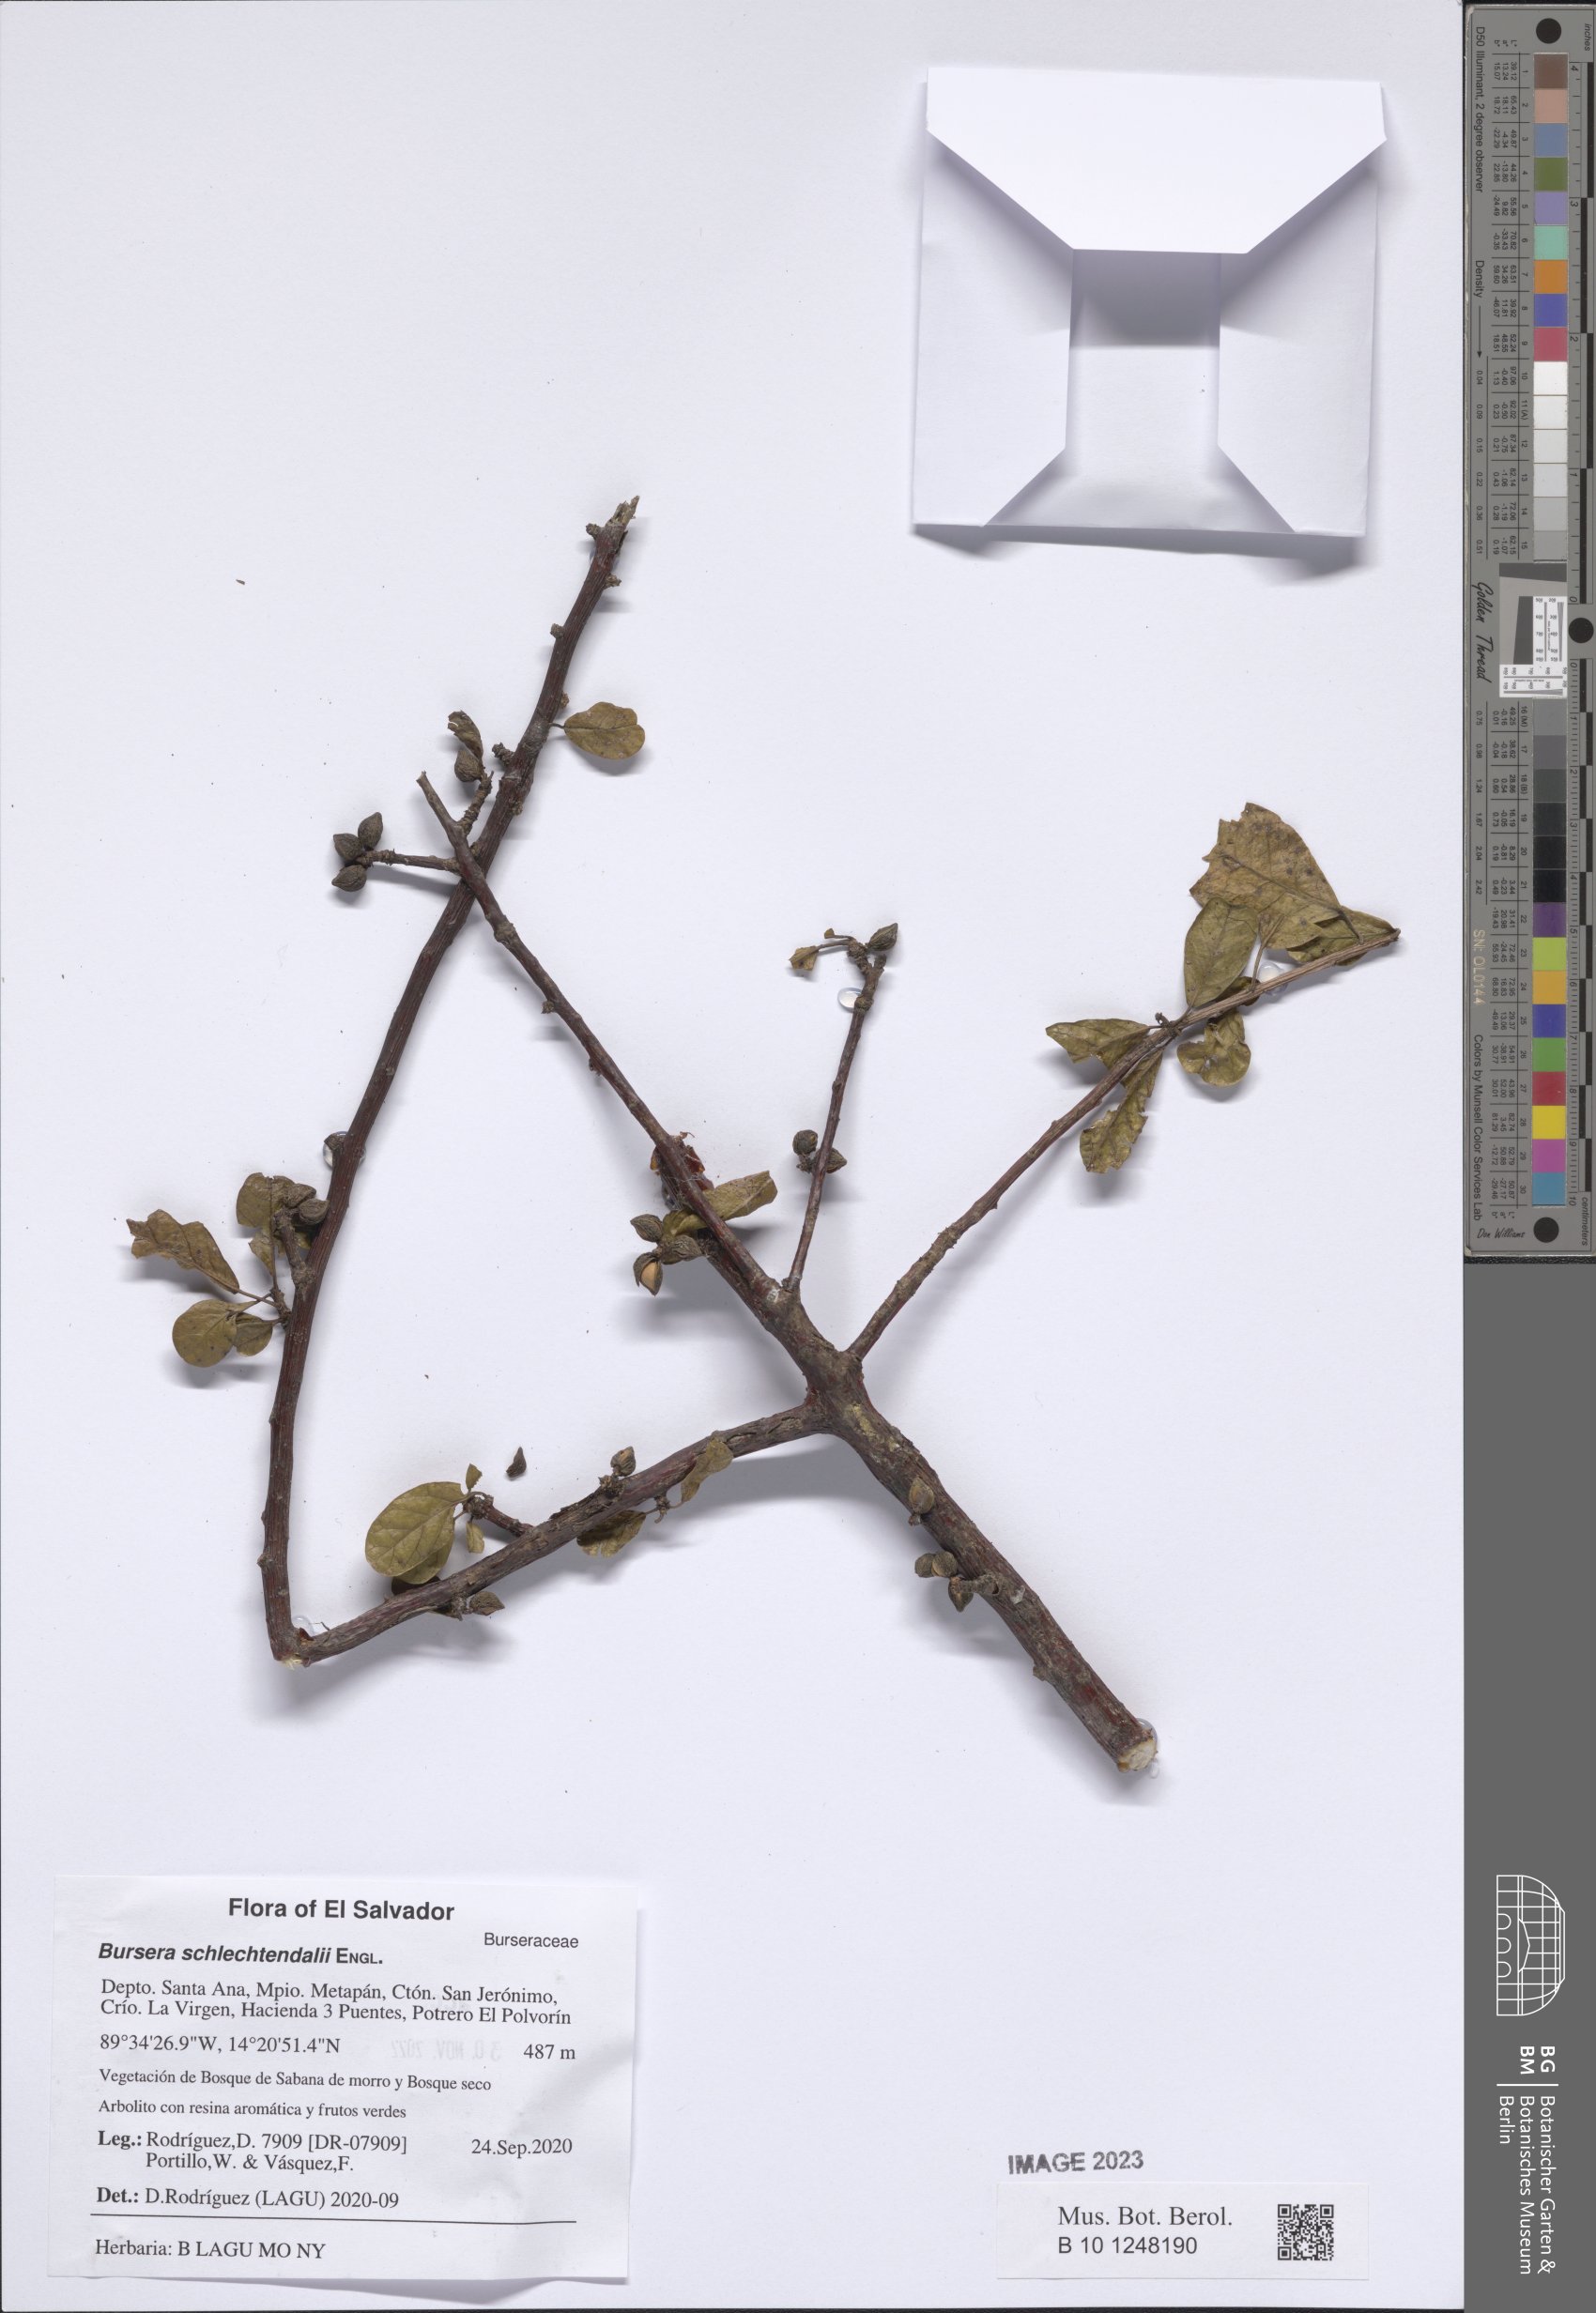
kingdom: Plantae
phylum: Tracheophyta
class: Magnoliopsida
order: Sapindales
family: Burseraceae
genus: Bursera
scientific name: Bursera schlechtendalii
